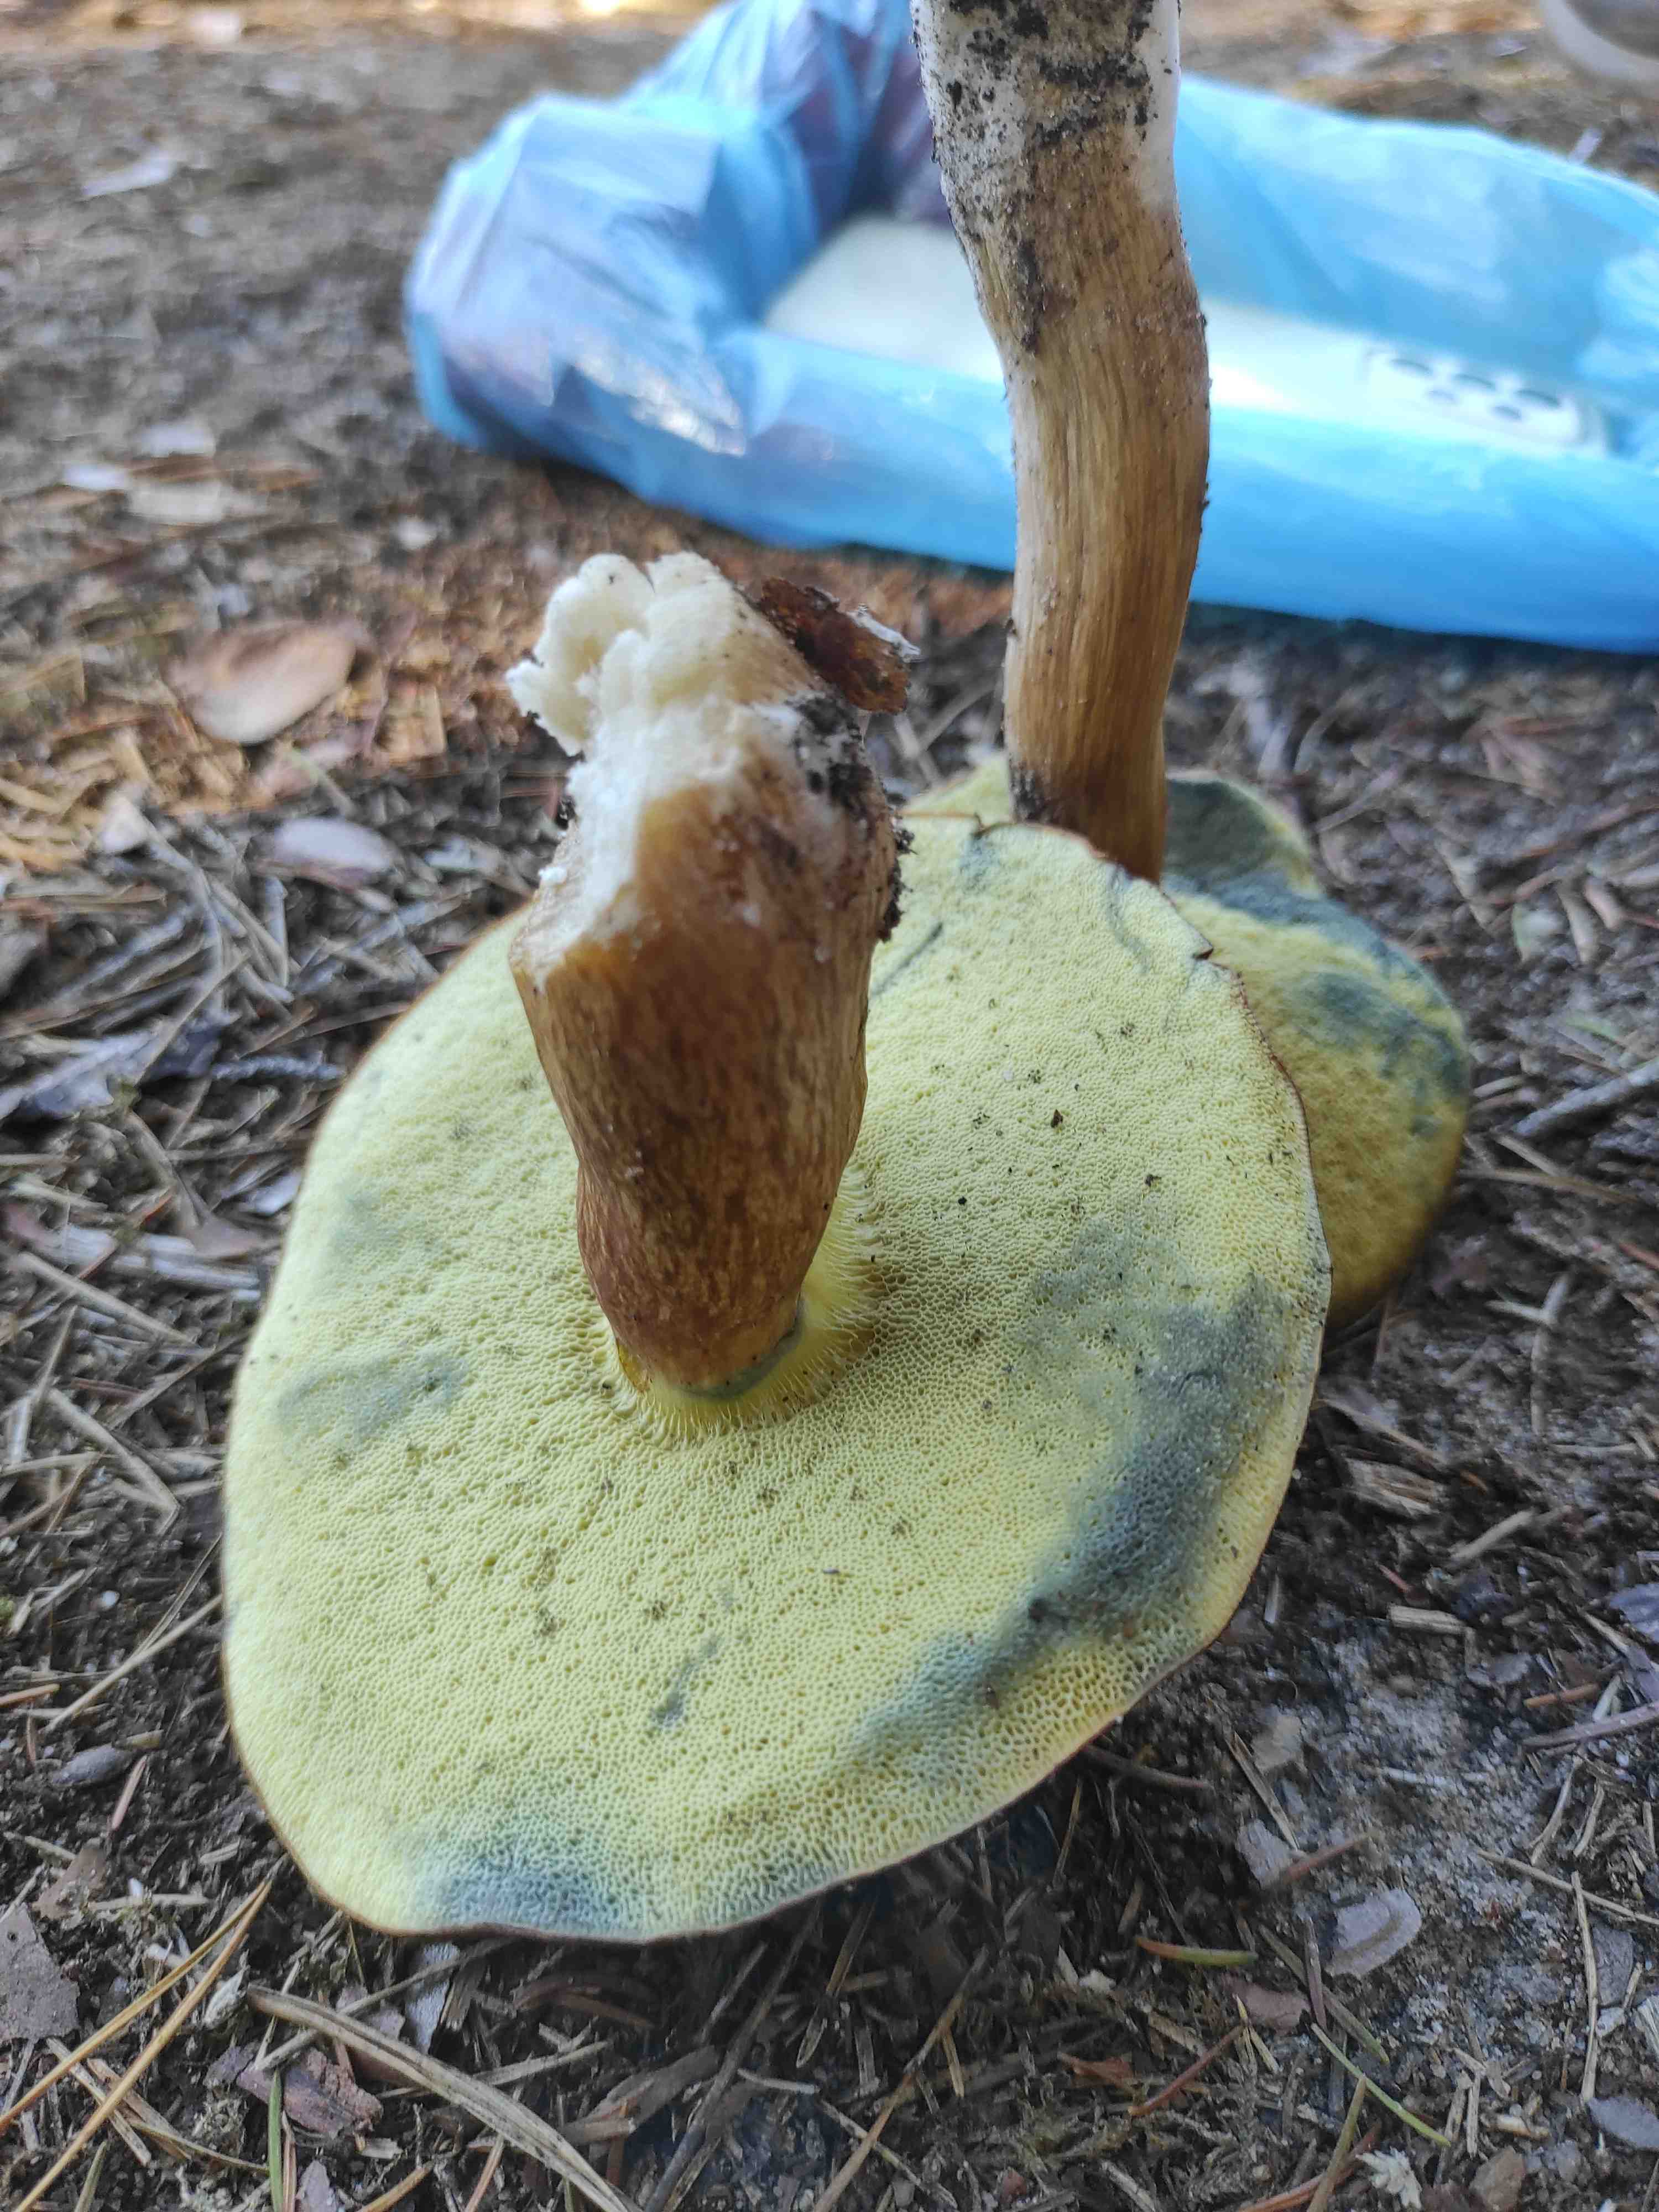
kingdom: Fungi
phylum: Basidiomycota
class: Agaricomycetes
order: Boletales
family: Boletaceae
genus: Imleria
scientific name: Imleria badia
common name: brunstokket rørhat
